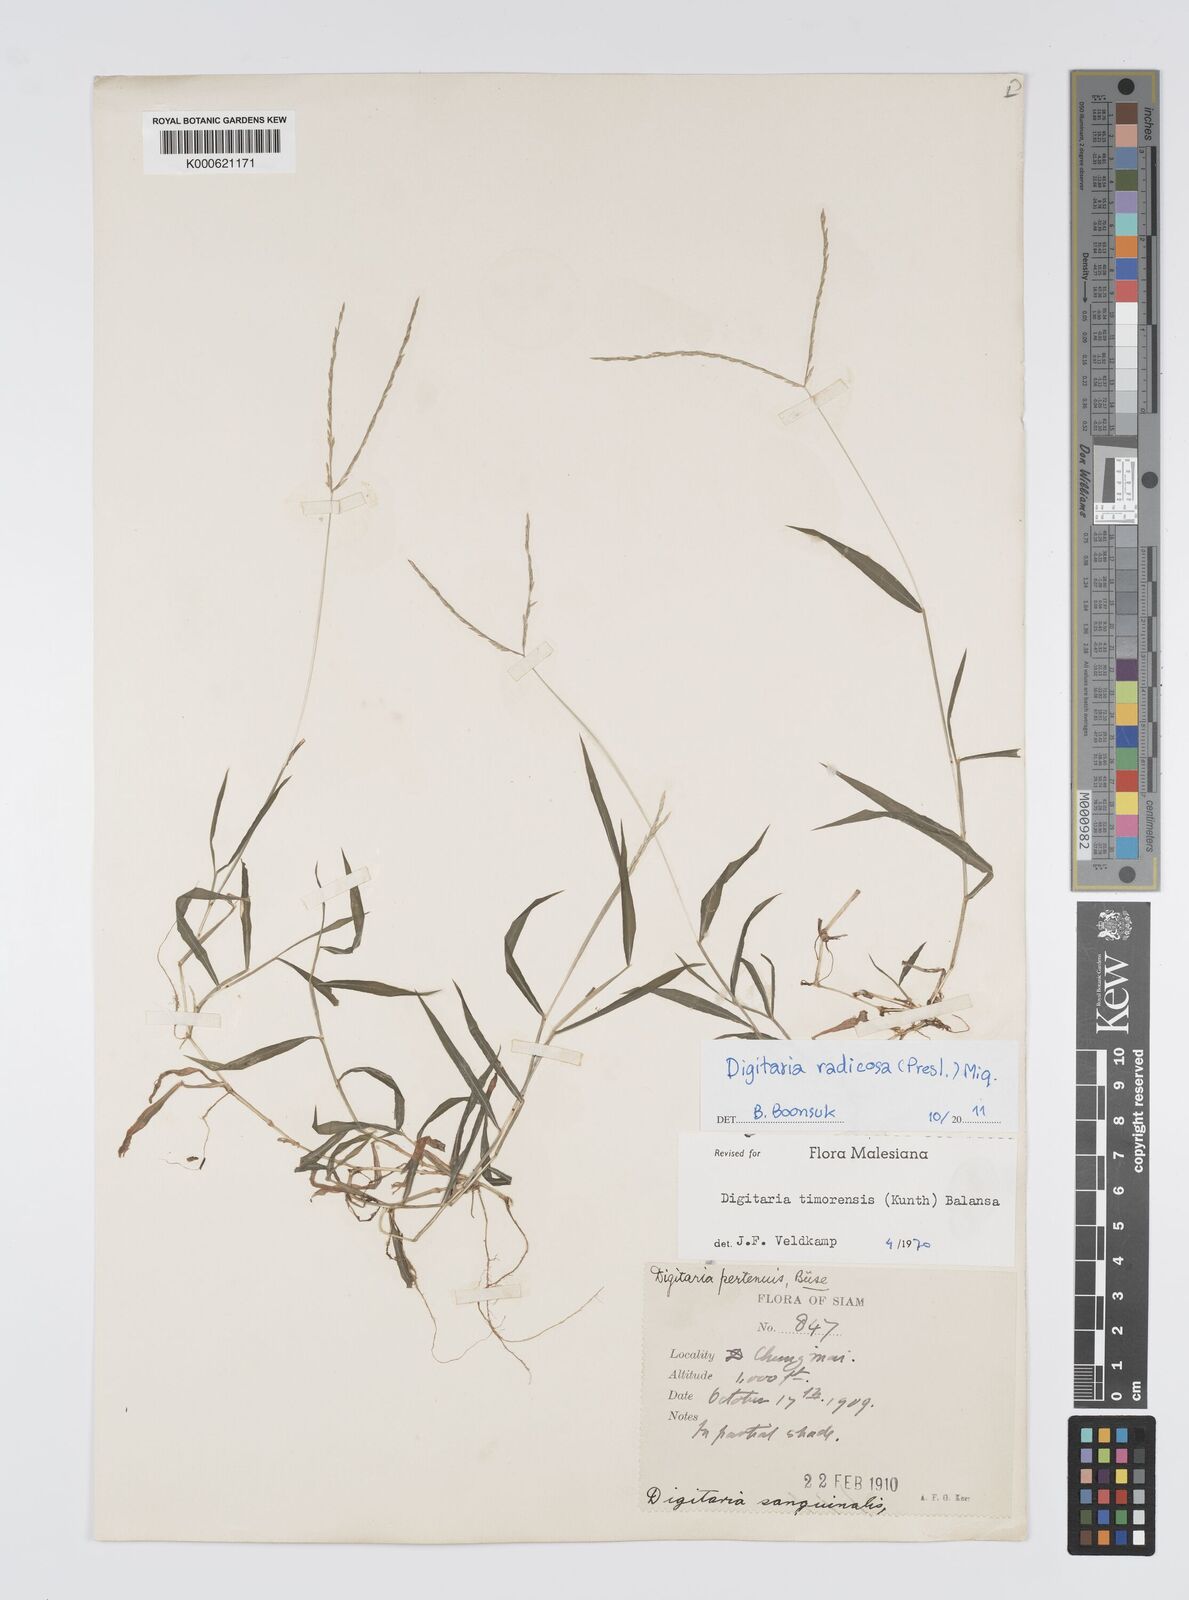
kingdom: Plantae
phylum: Tracheophyta
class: Liliopsida
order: Poales
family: Poaceae
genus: Digitaria
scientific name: Digitaria radicosa
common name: Trailing crabgrass
